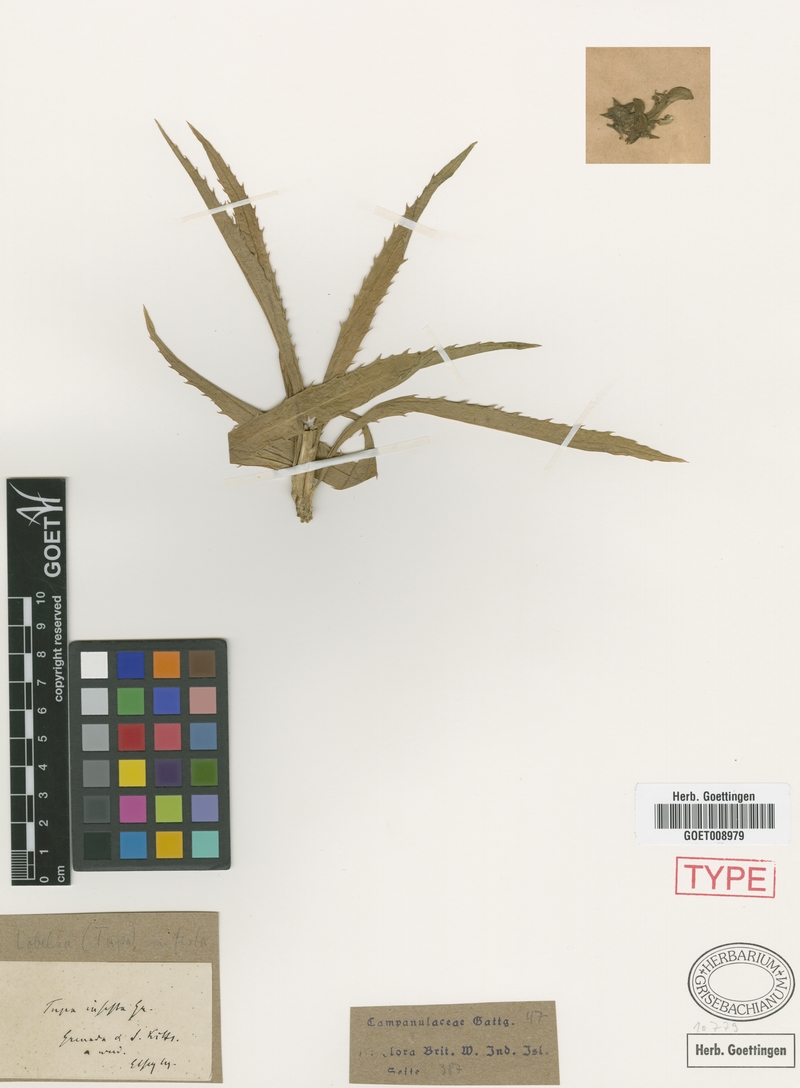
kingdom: Plantae
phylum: Tracheophyta
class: Magnoliopsida
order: Asterales
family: Campanulaceae
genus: Lobelia
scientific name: Lobelia cirsiifolia
